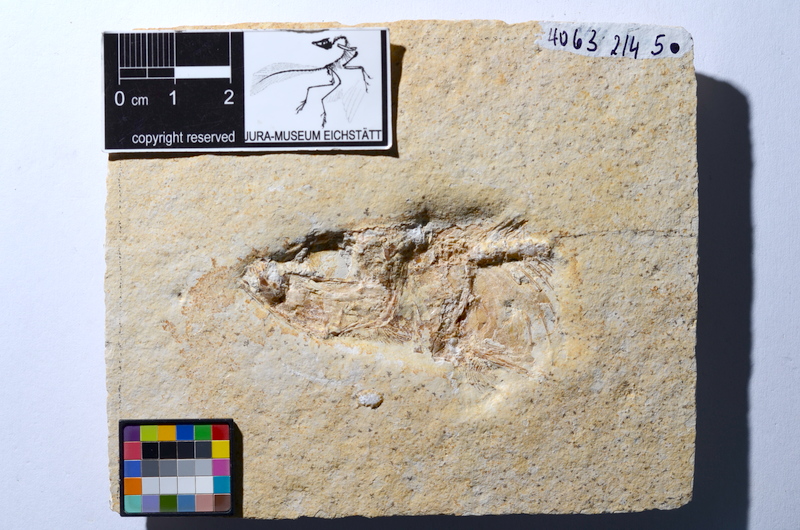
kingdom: Animalia
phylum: Chordata
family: Ascalaboidae
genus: Tharsis
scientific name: Tharsis dubius
